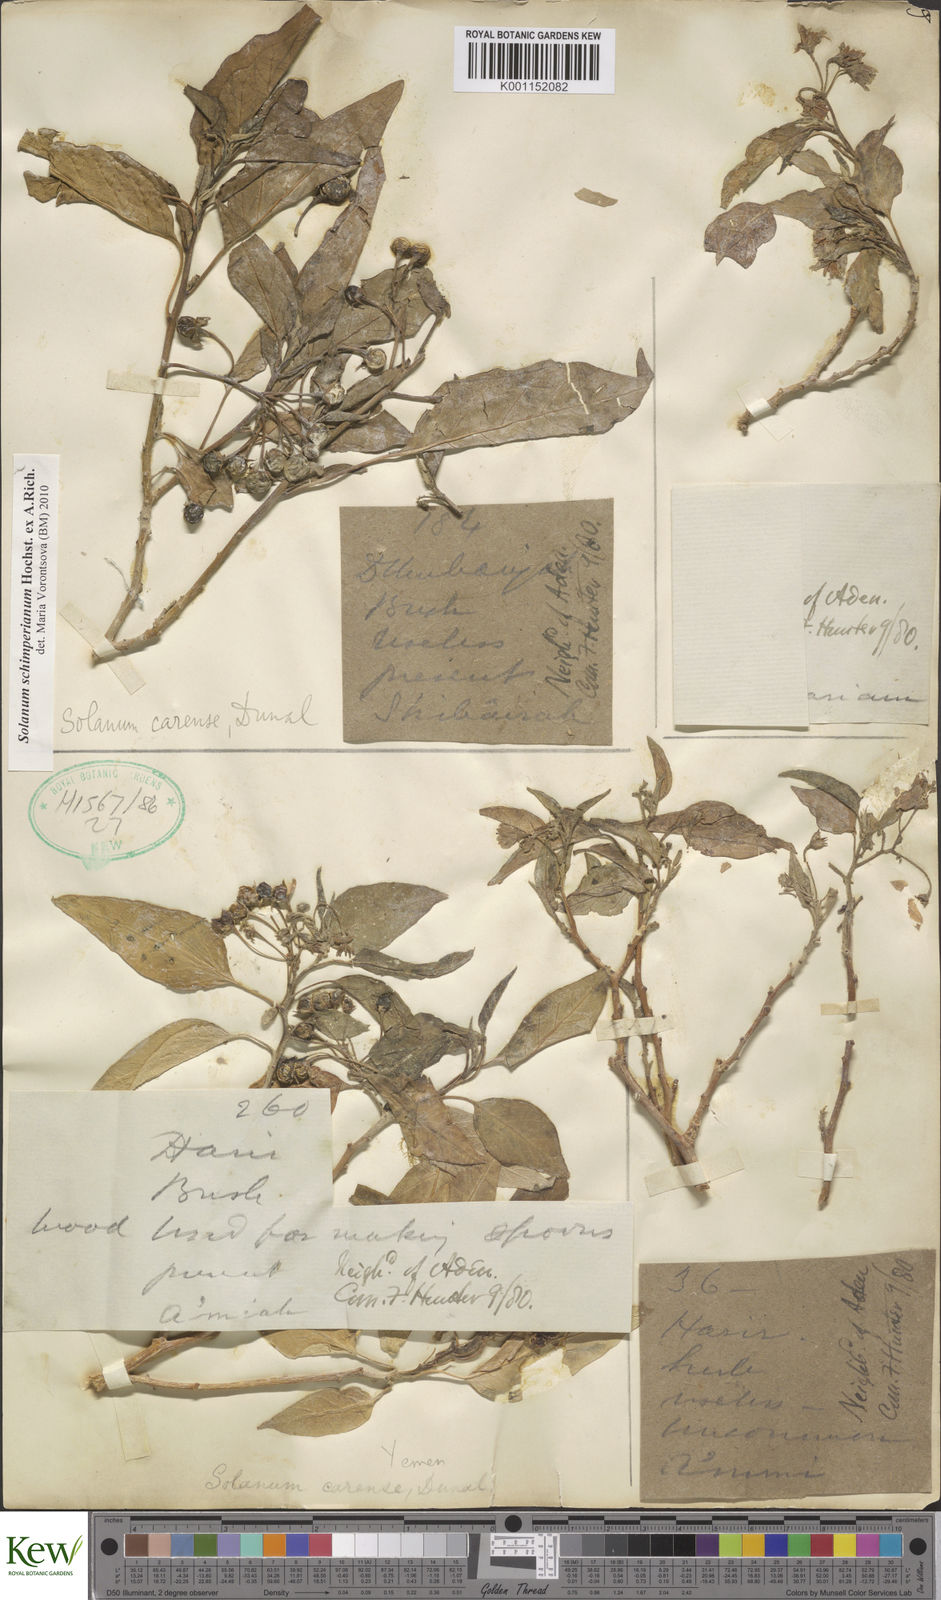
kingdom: Plantae
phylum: Tracheophyta
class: Magnoliopsida
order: Solanales
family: Solanaceae
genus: Solanum
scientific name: Solanum schimperianum
